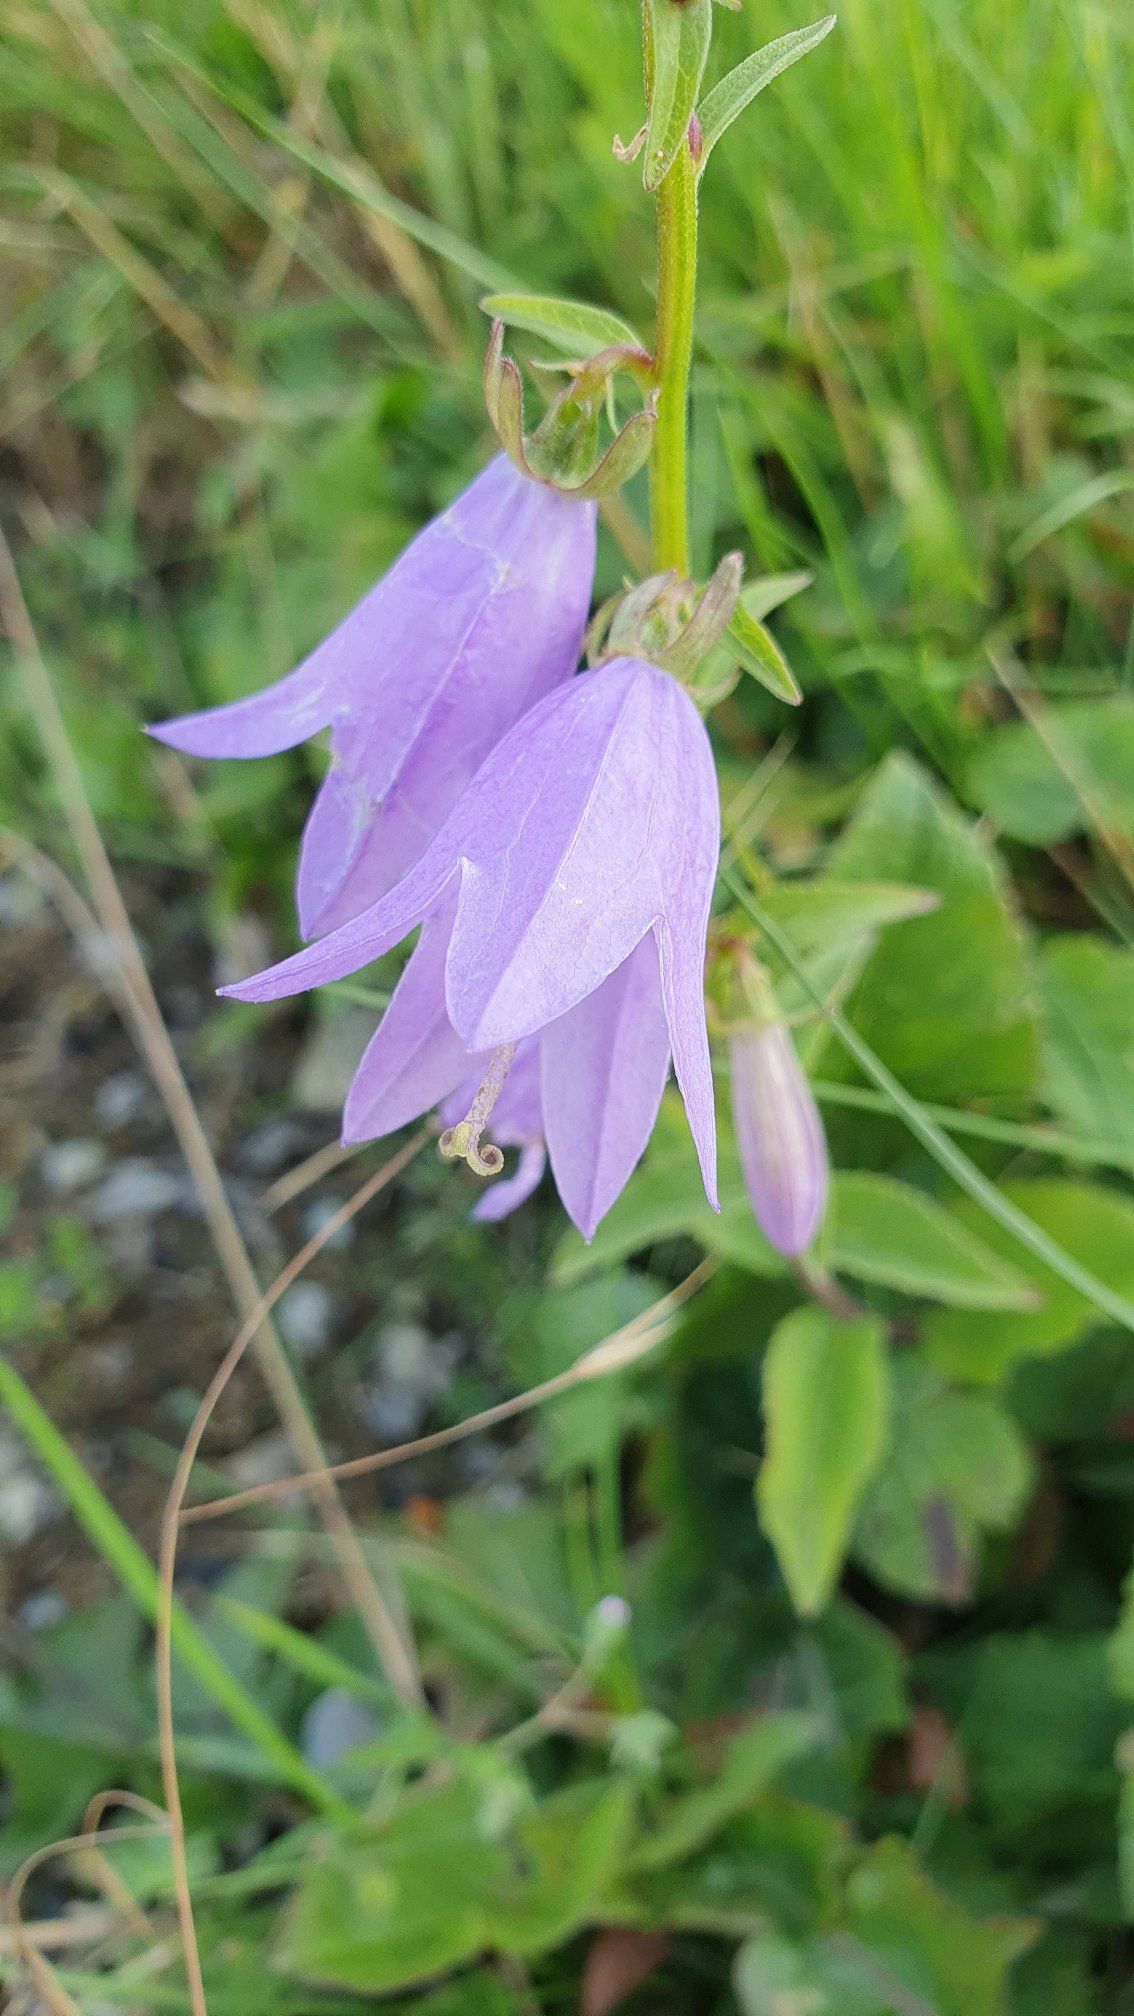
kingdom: Plantae
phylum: Tracheophyta
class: Magnoliopsida
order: Asterales
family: Campanulaceae
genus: Campanula
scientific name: Campanula rapunculoides
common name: Ensidig klokke
